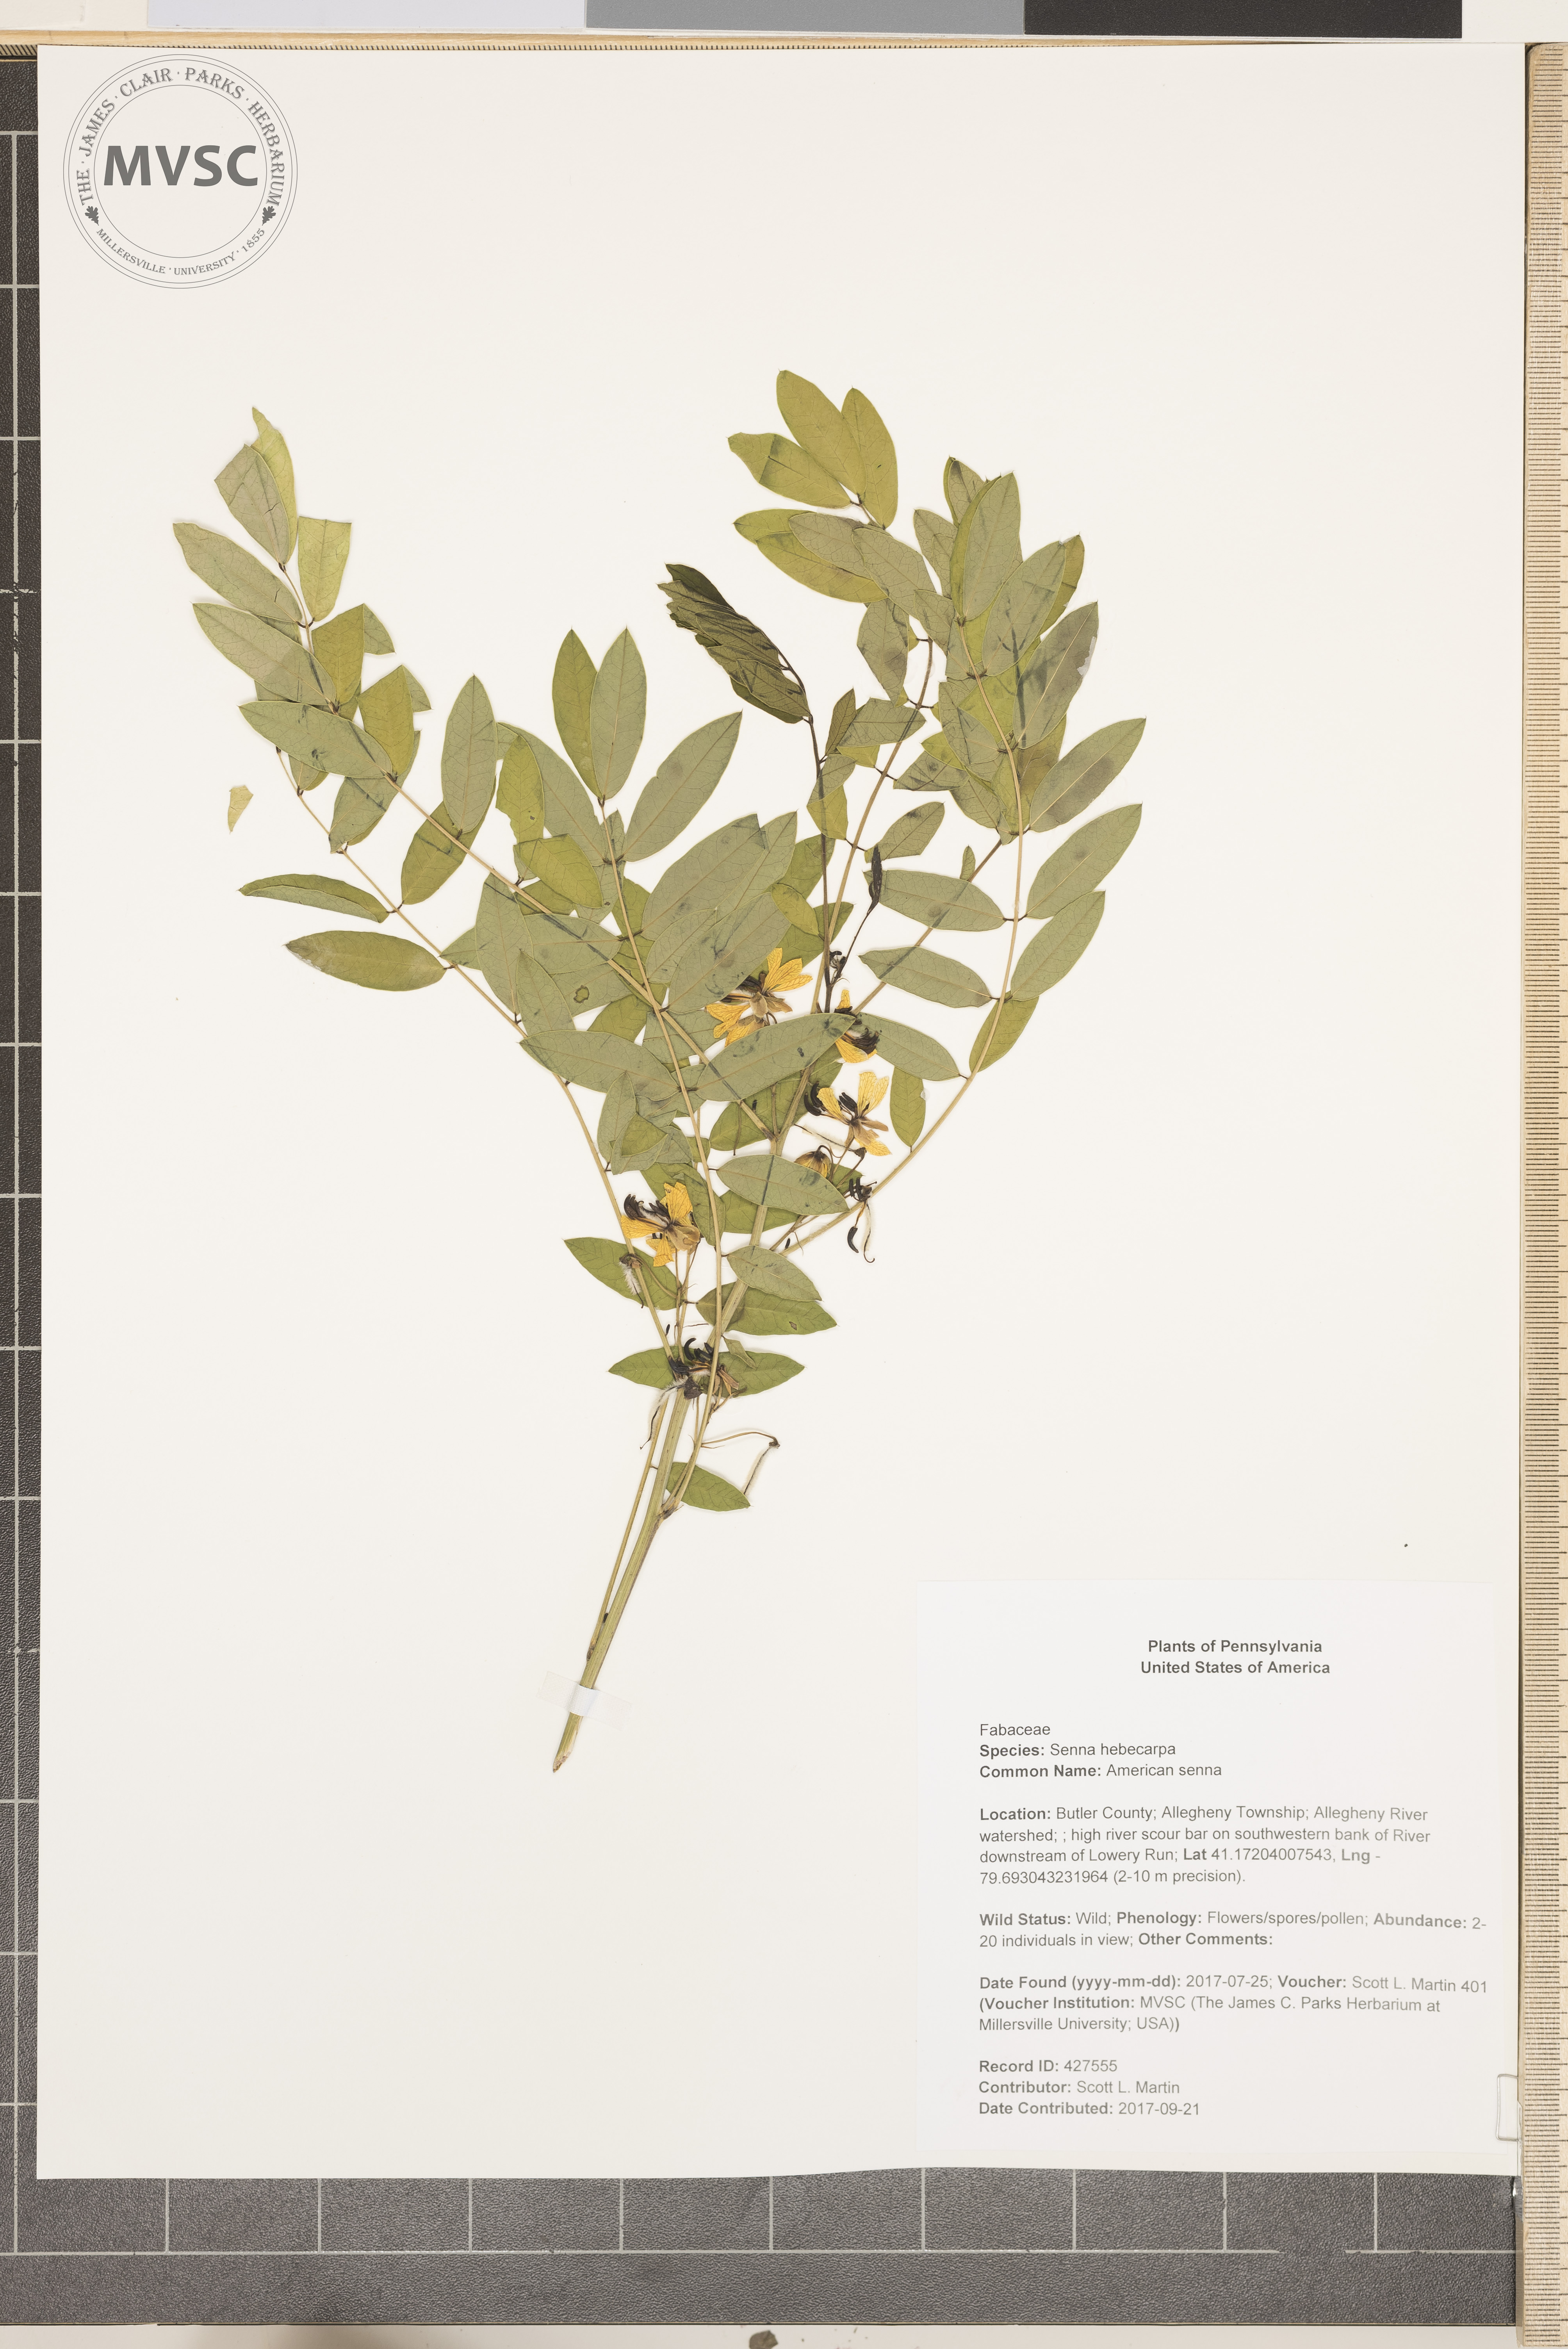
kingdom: Plantae
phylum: Tracheophyta
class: Magnoliopsida
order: Fabales
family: Fabaceae
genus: Senna
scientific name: Senna hebecarpa
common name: American senna
